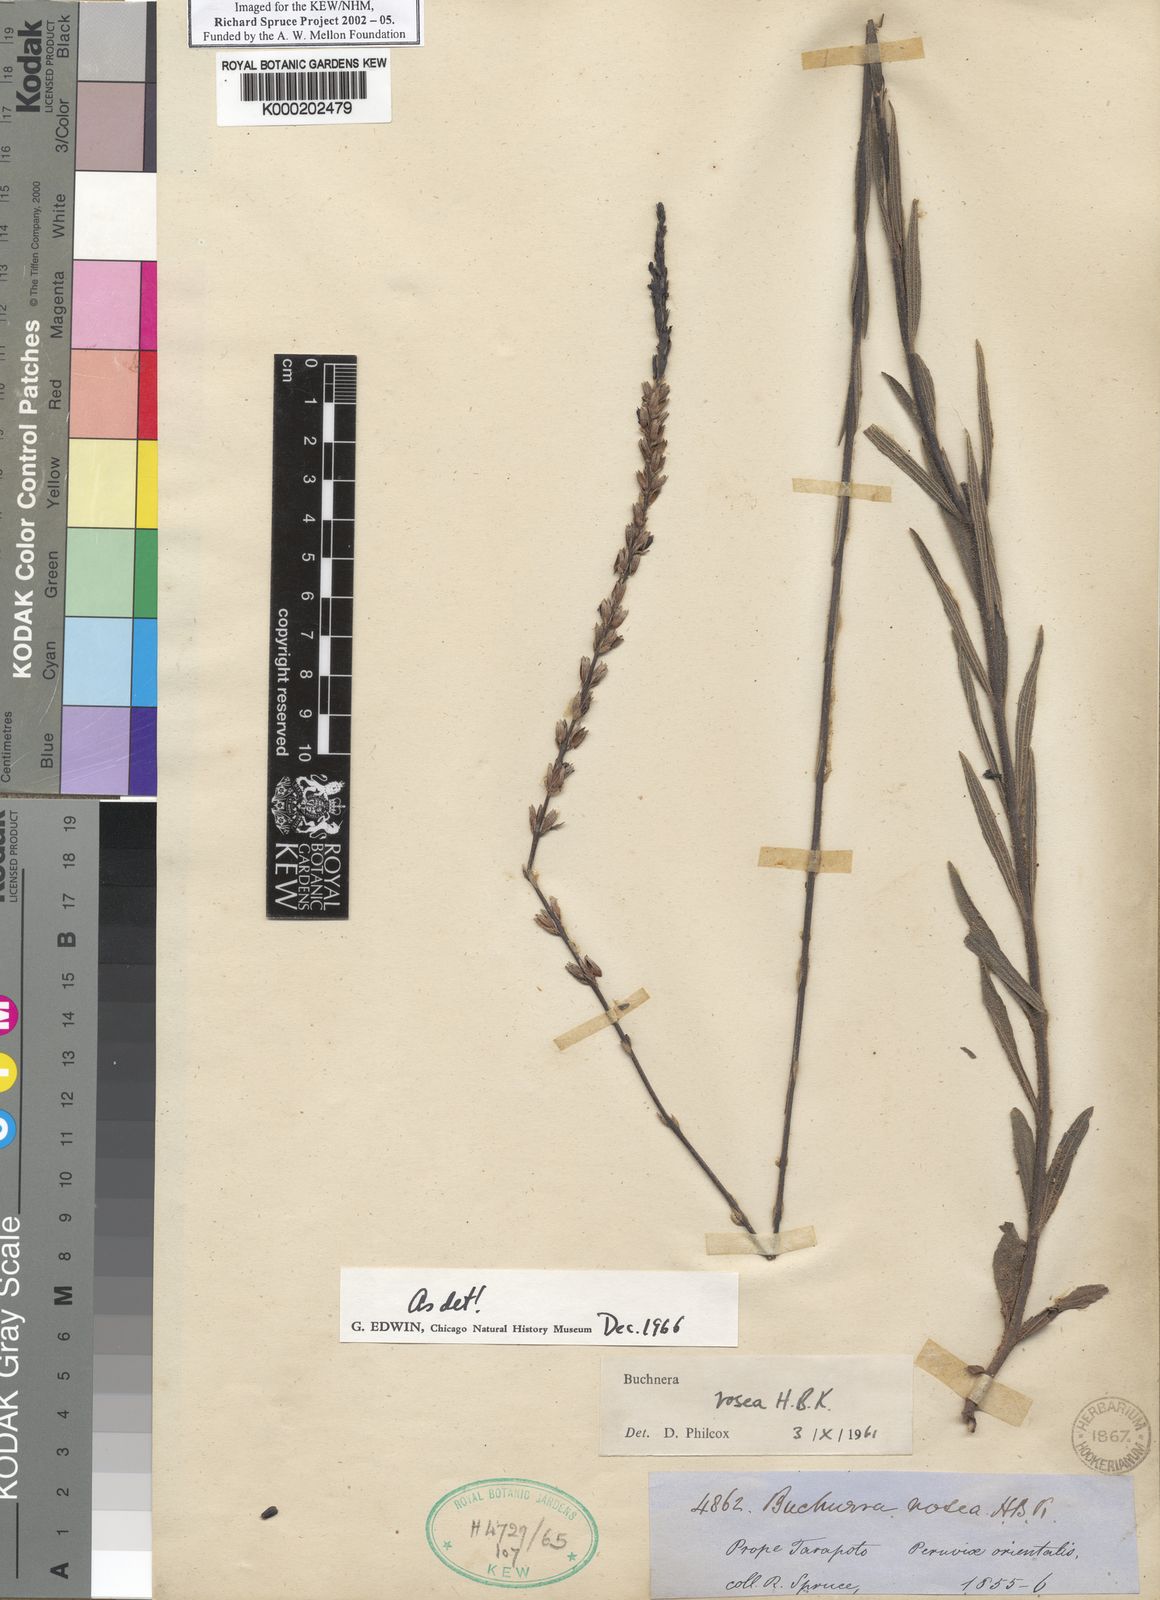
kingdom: Plantae
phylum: Tracheophyta
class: Magnoliopsida
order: Lamiales
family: Orobanchaceae
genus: Buchnera
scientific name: Buchnera rosea
